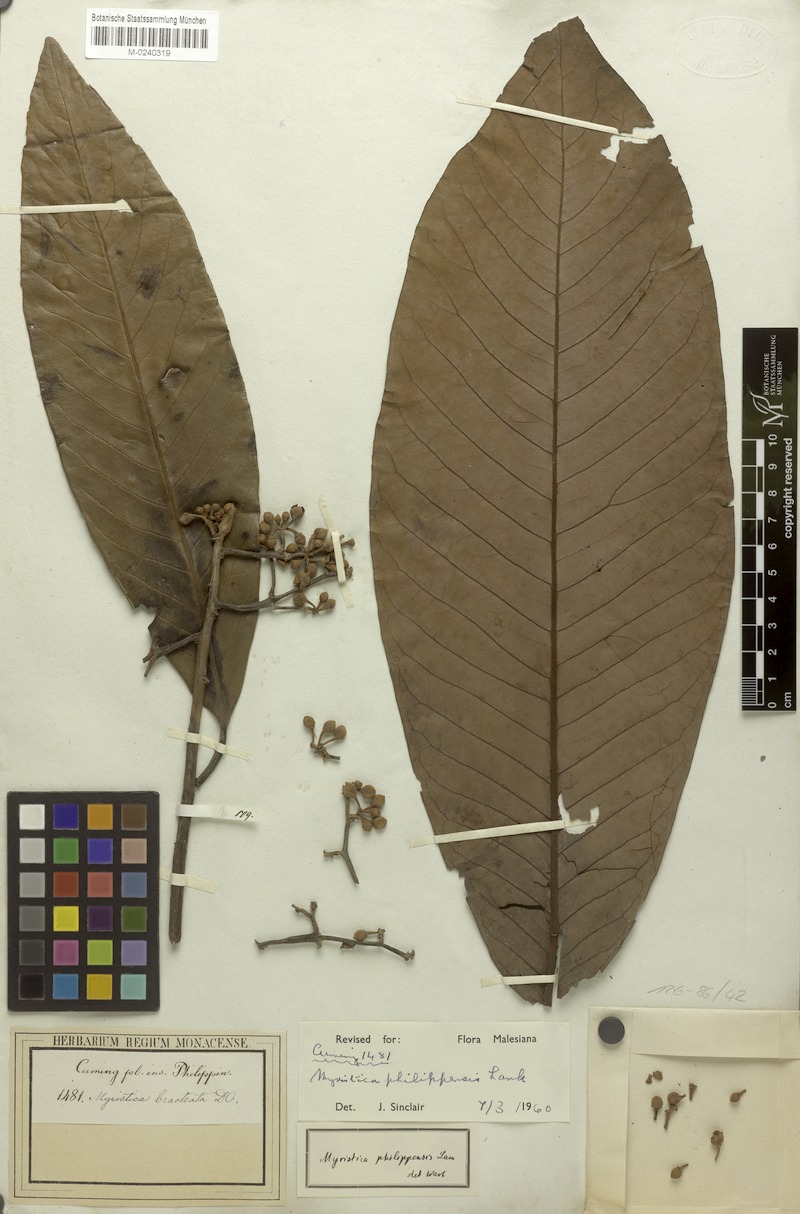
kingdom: Plantae
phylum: Tracheophyta
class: Magnoliopsida
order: Magnoliales
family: Myristicaceae
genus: Myristica
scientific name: Myristica philippensis
